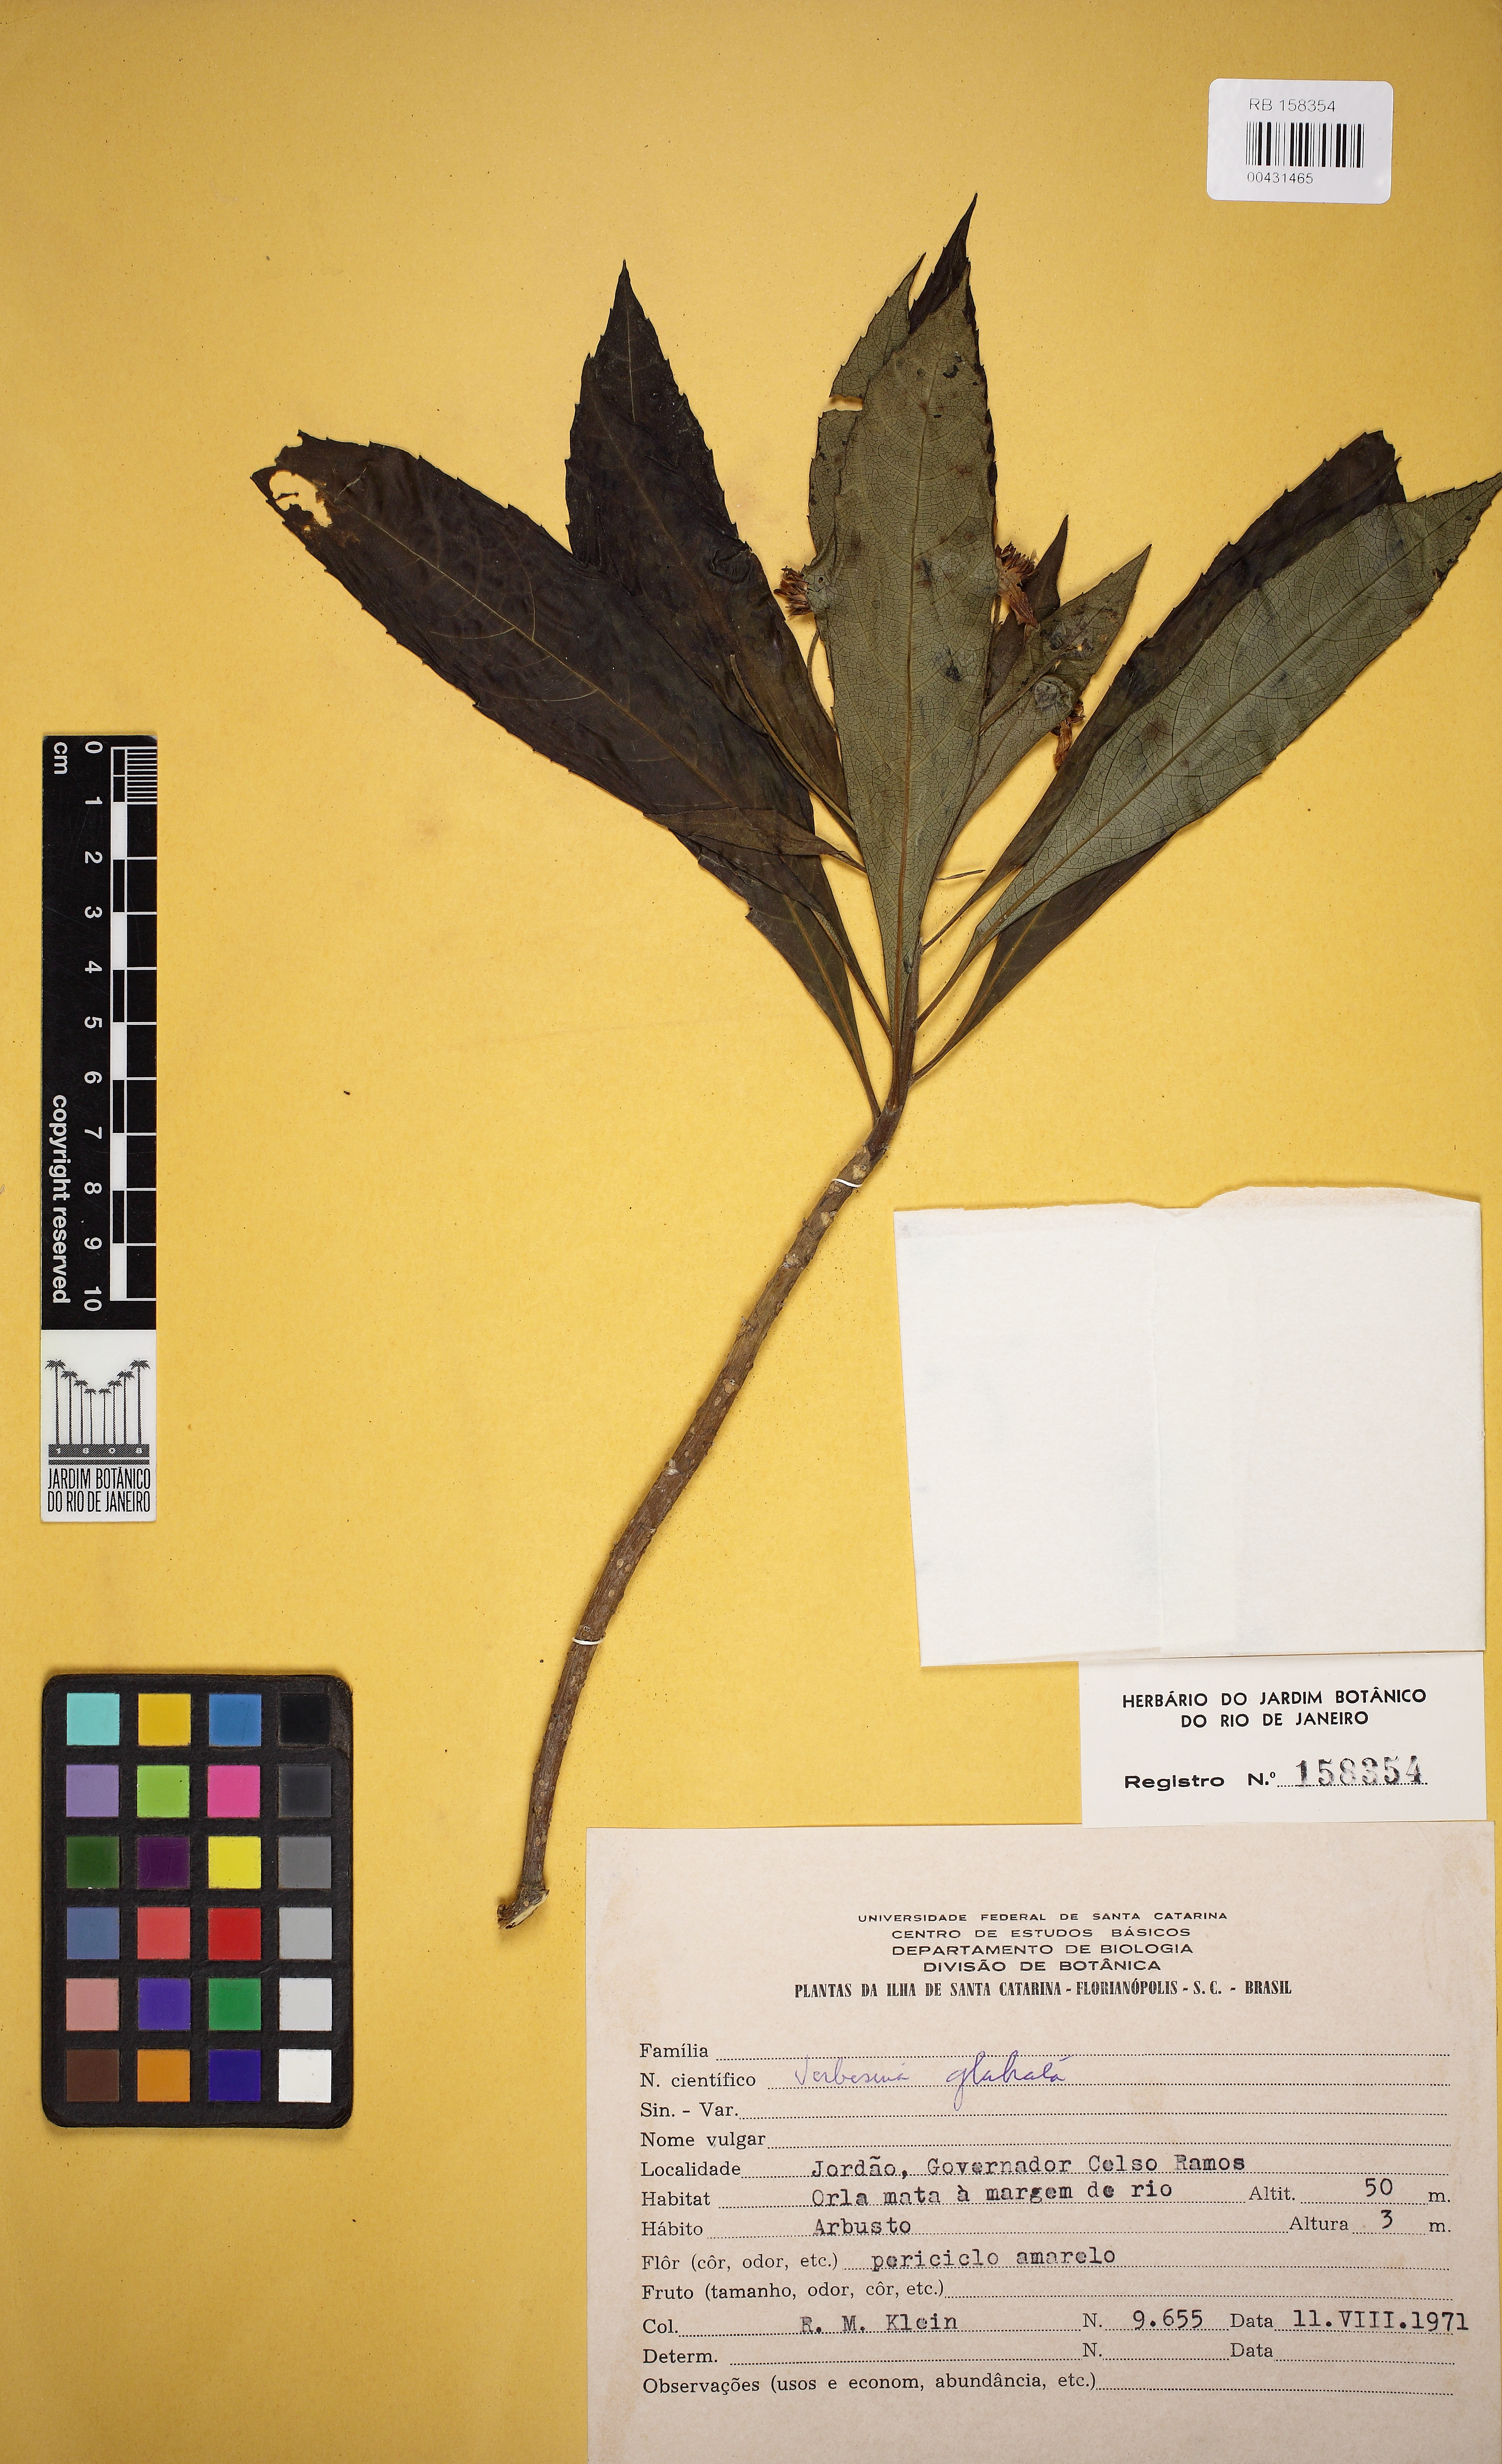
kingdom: Plantae
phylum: Tracheophyta
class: Magnoliopsida
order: Asterales
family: Asteraceae
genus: Verbesina
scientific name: Verbesina glabrata
